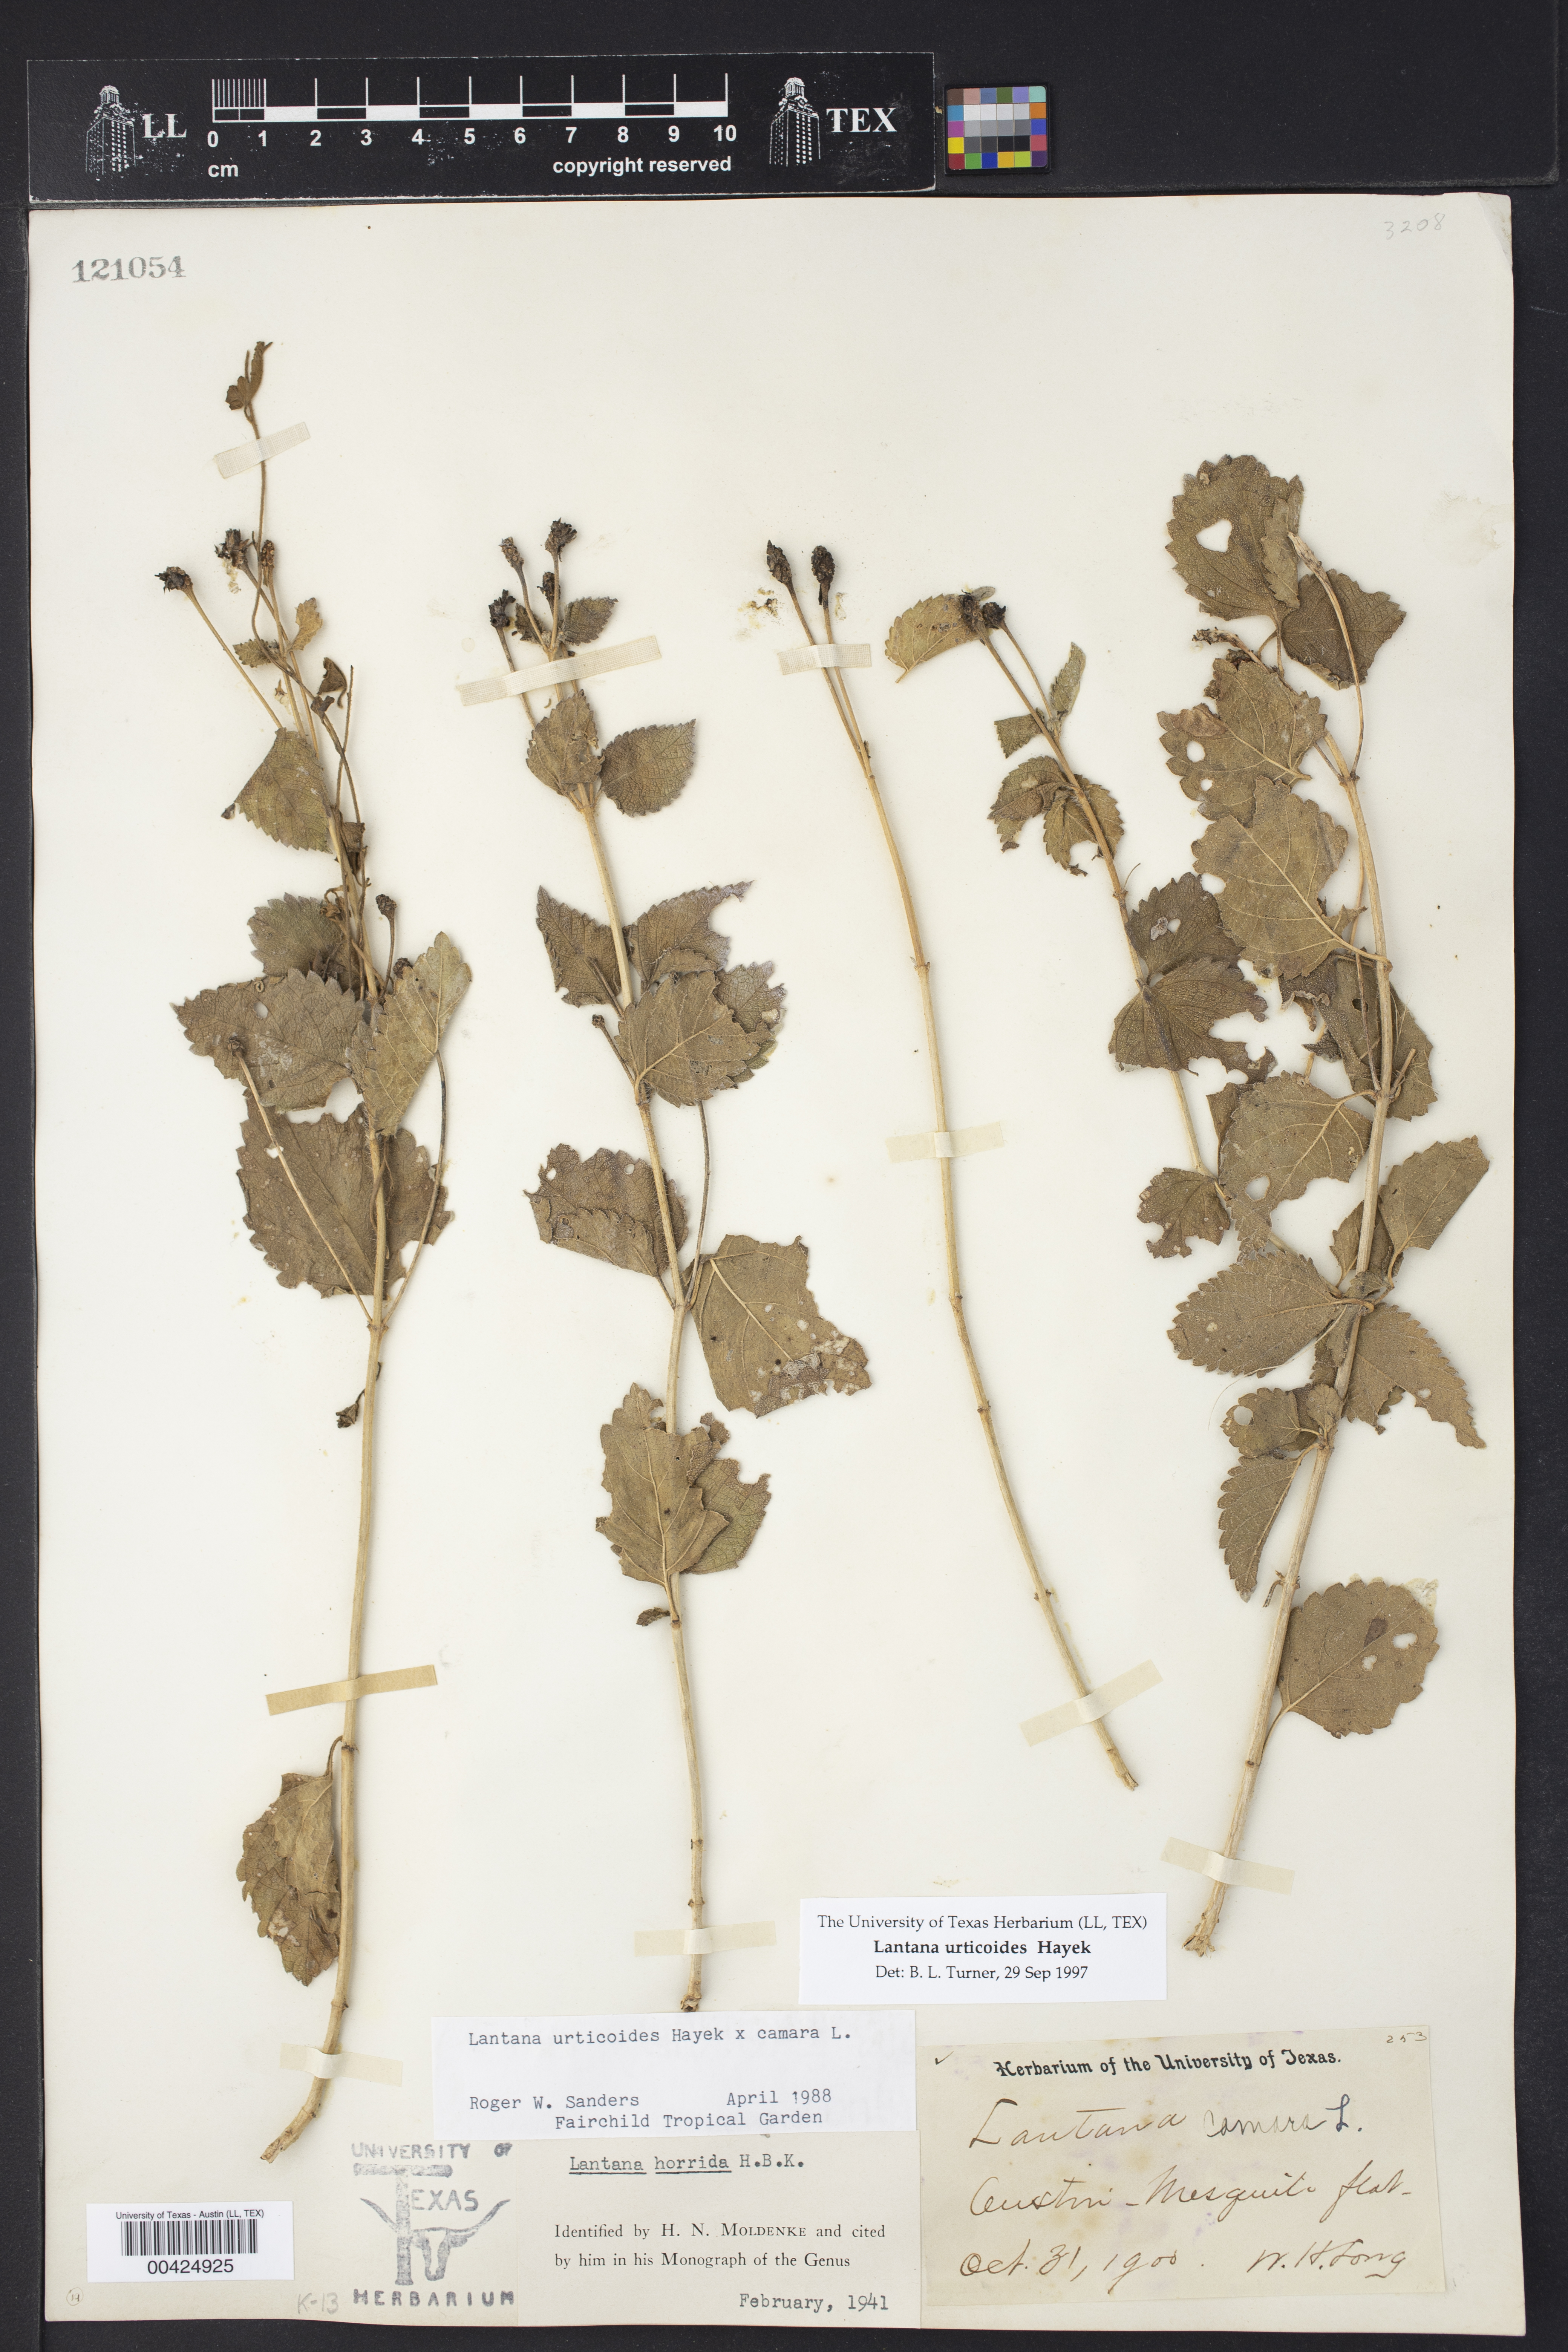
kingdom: Plantae
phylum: Tracheophyta
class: Magnoliopsida
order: Lamiales
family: Verbenaceae
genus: Lantana
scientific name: Lantana urticoides
